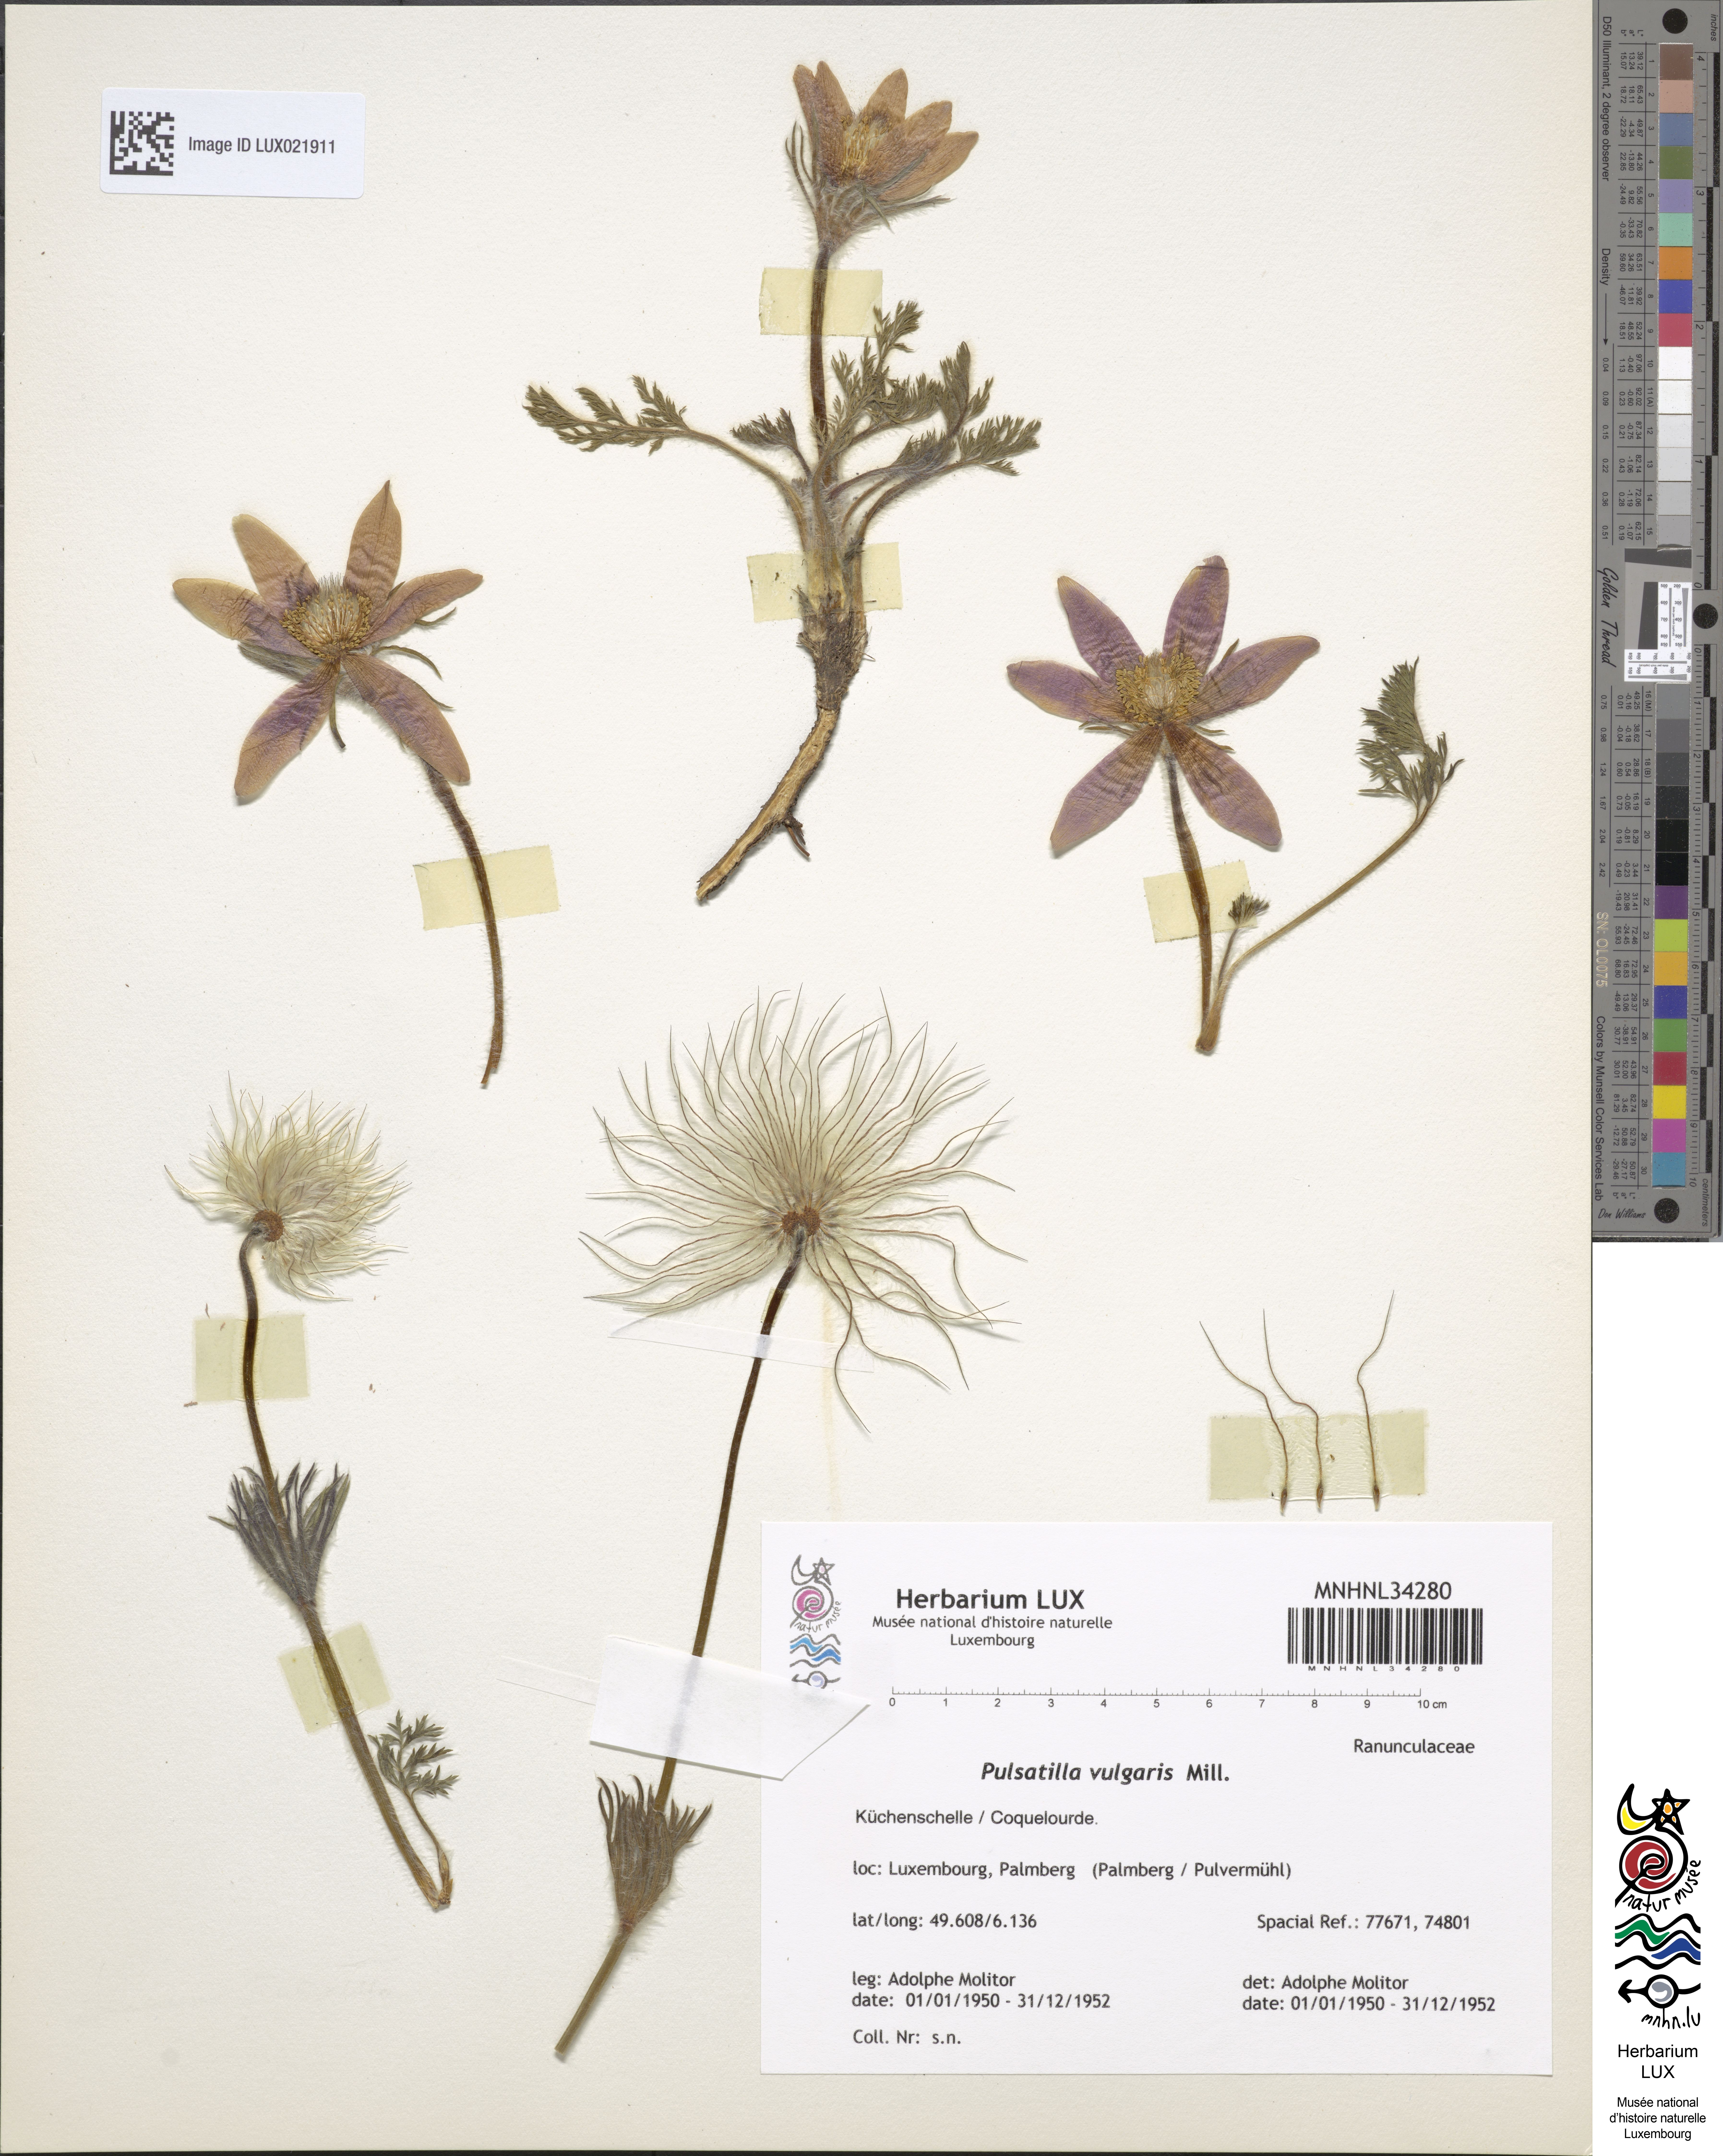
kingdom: Plantae
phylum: Tracheophyta
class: Magnoliopsida
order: Ranunculales
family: Ranunculaceae
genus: Pulsatilla
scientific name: Pulsatilla vulgaris
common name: Pasqueflower
